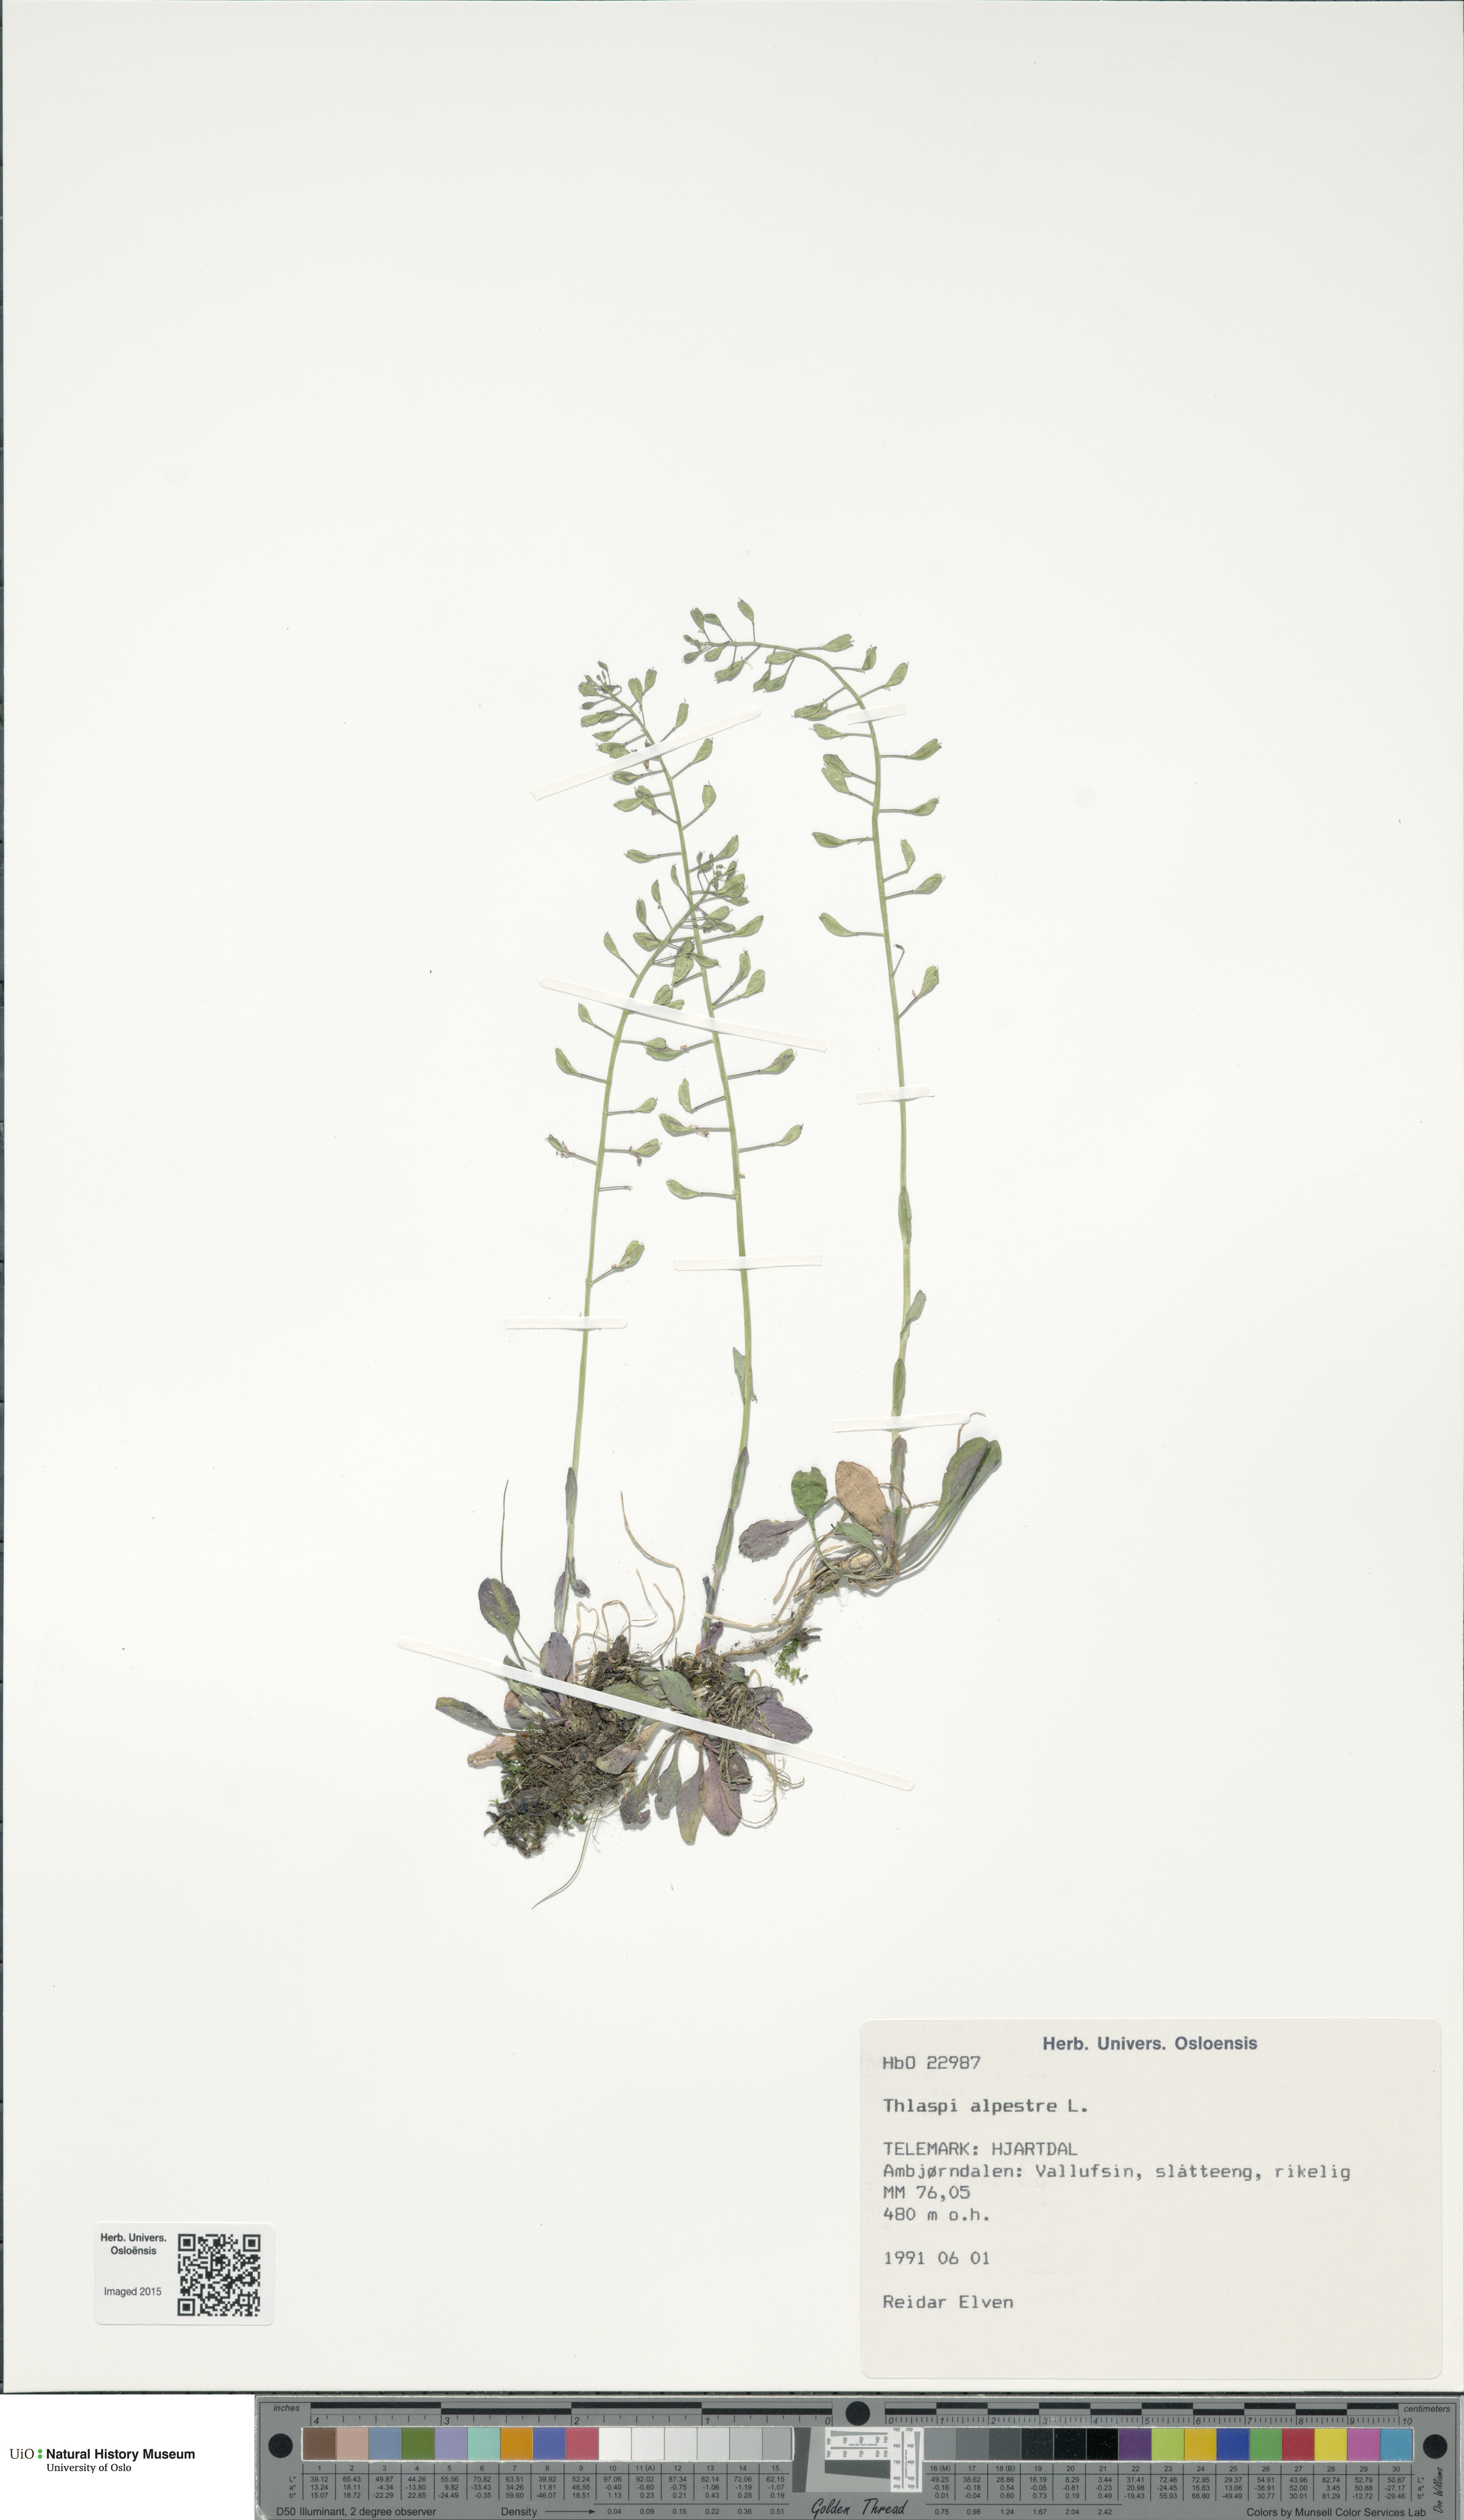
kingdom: Plantae
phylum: Tracheophyta
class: Magnoliopsida
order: Brassicales
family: Brassicaceae
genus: Noccaea
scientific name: Noccaea caerulescens
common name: Alpine pennycress
